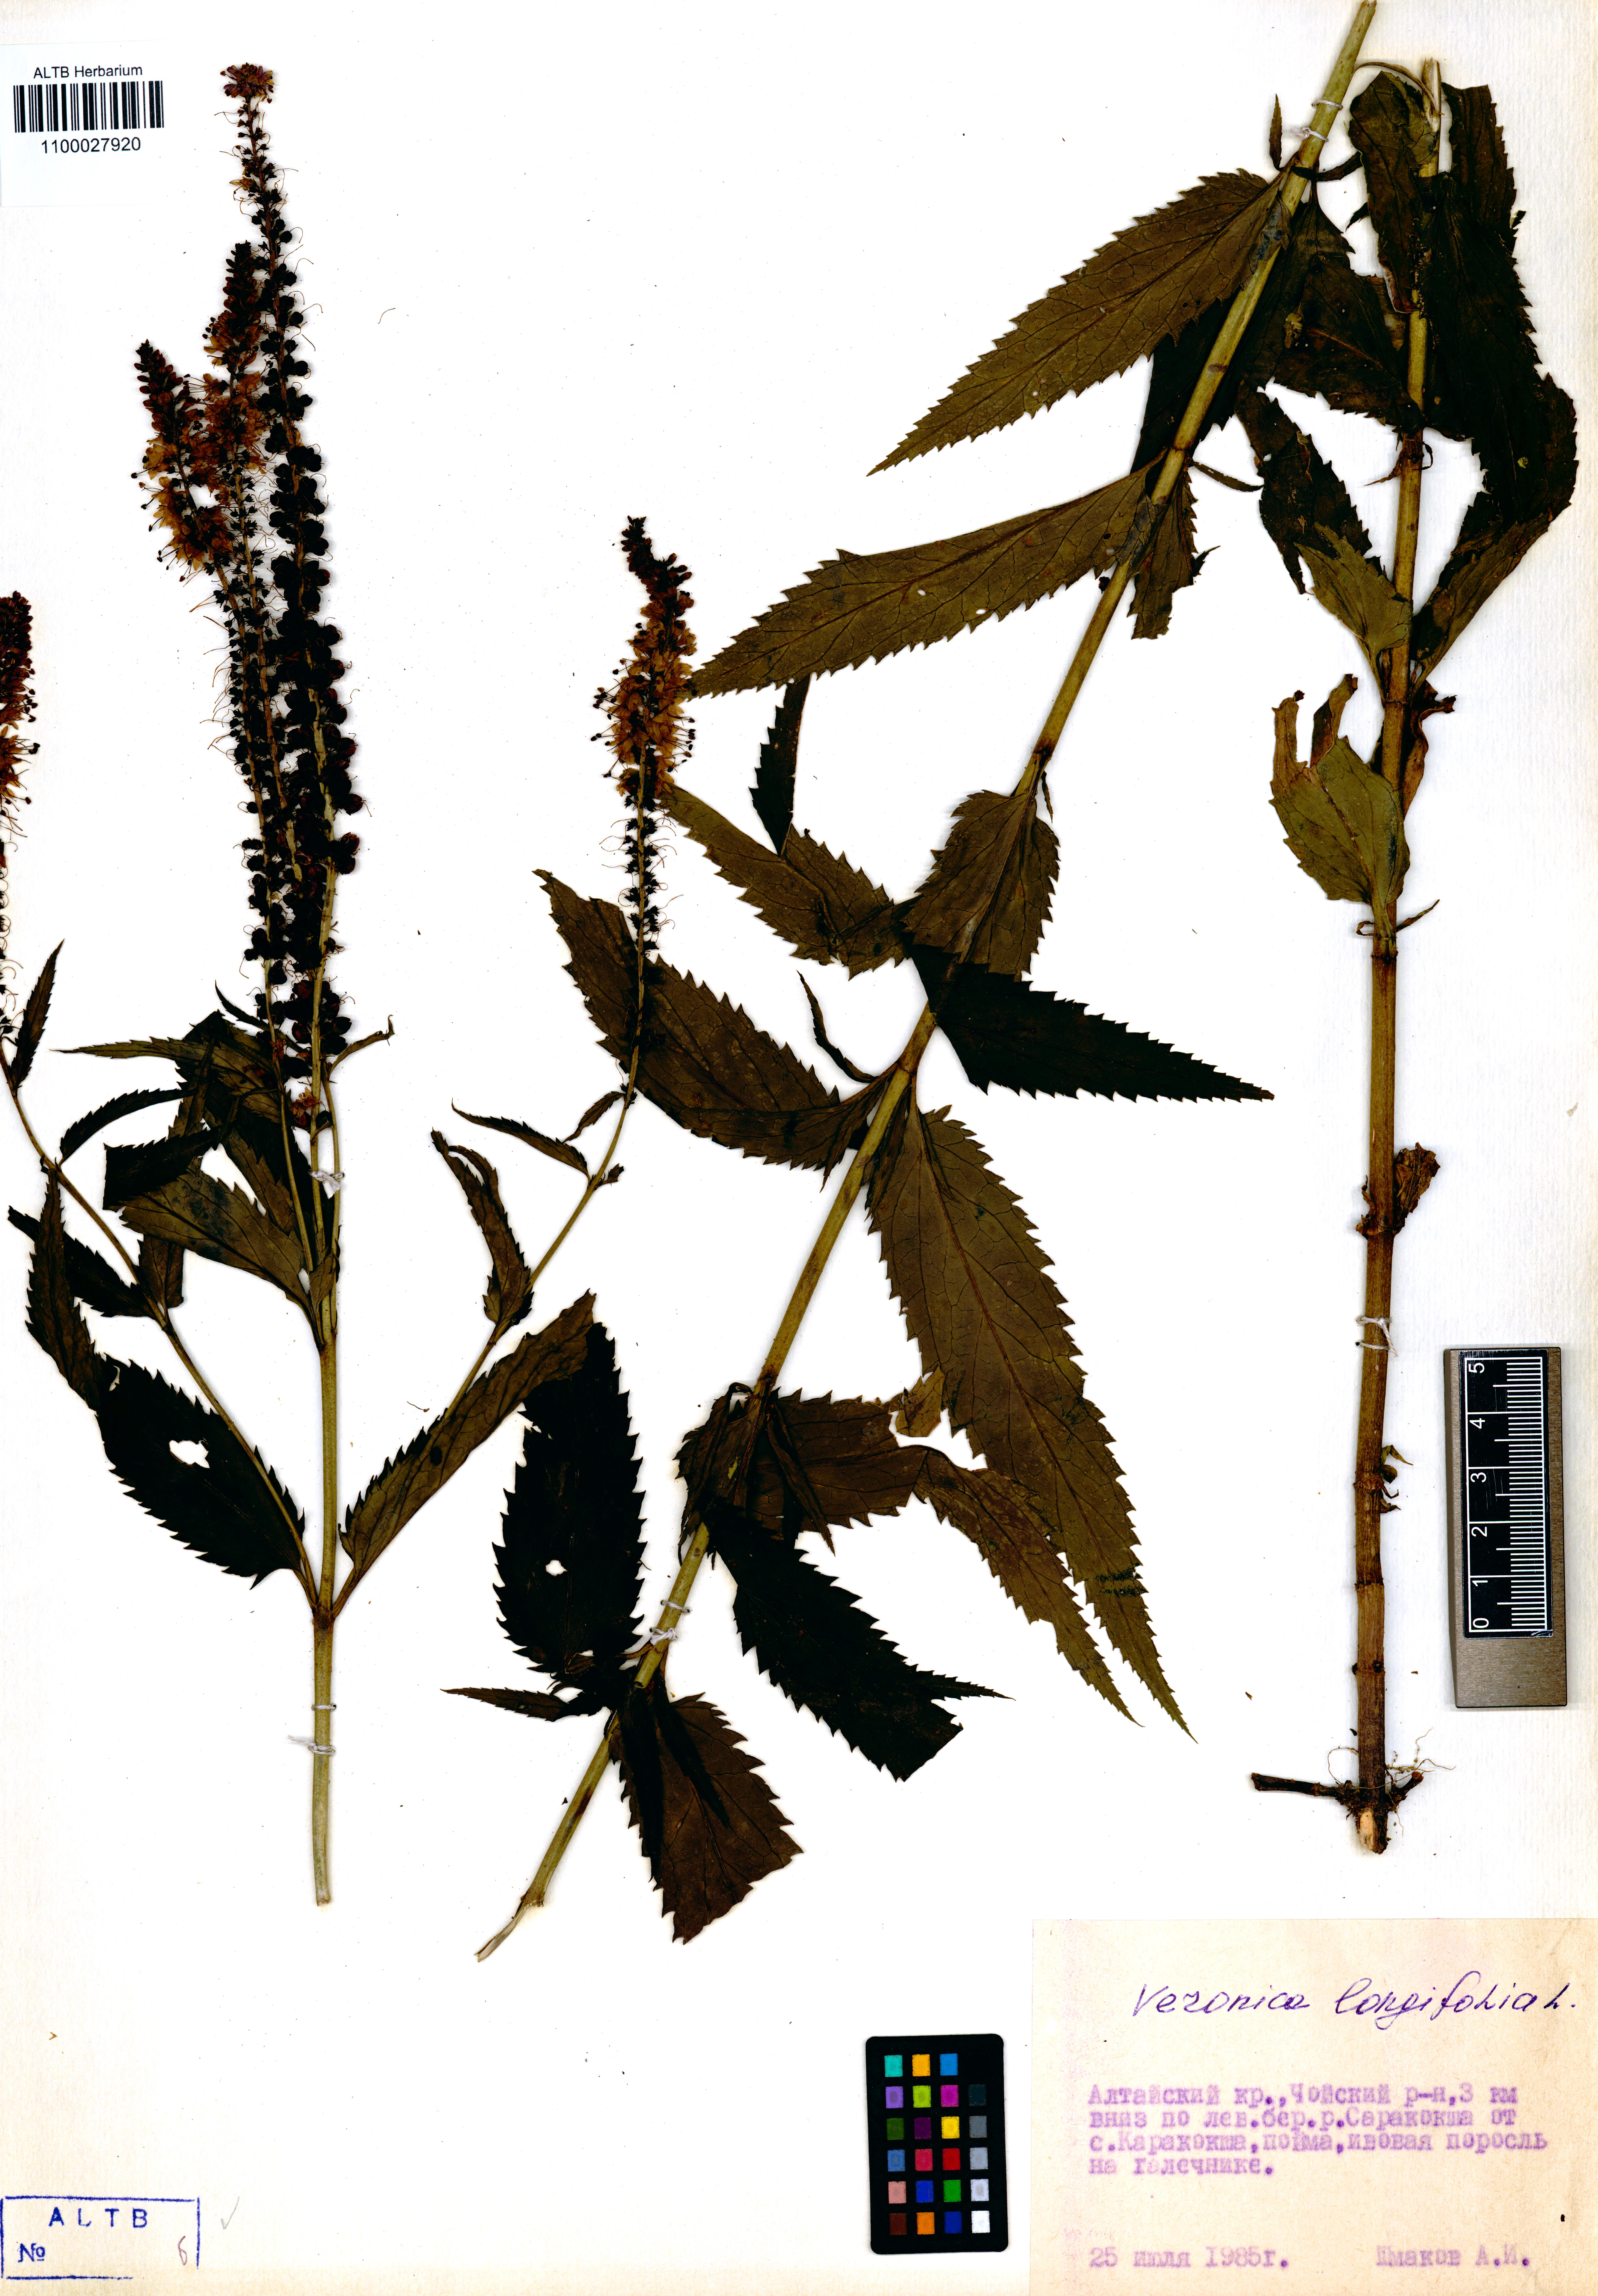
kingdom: Plantae
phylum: Tracheophyta
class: Magnoliopsida
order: Lamiales
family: Plantaginaceae
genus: Veronica
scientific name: Veronica longifolia
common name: Garden speedwell
